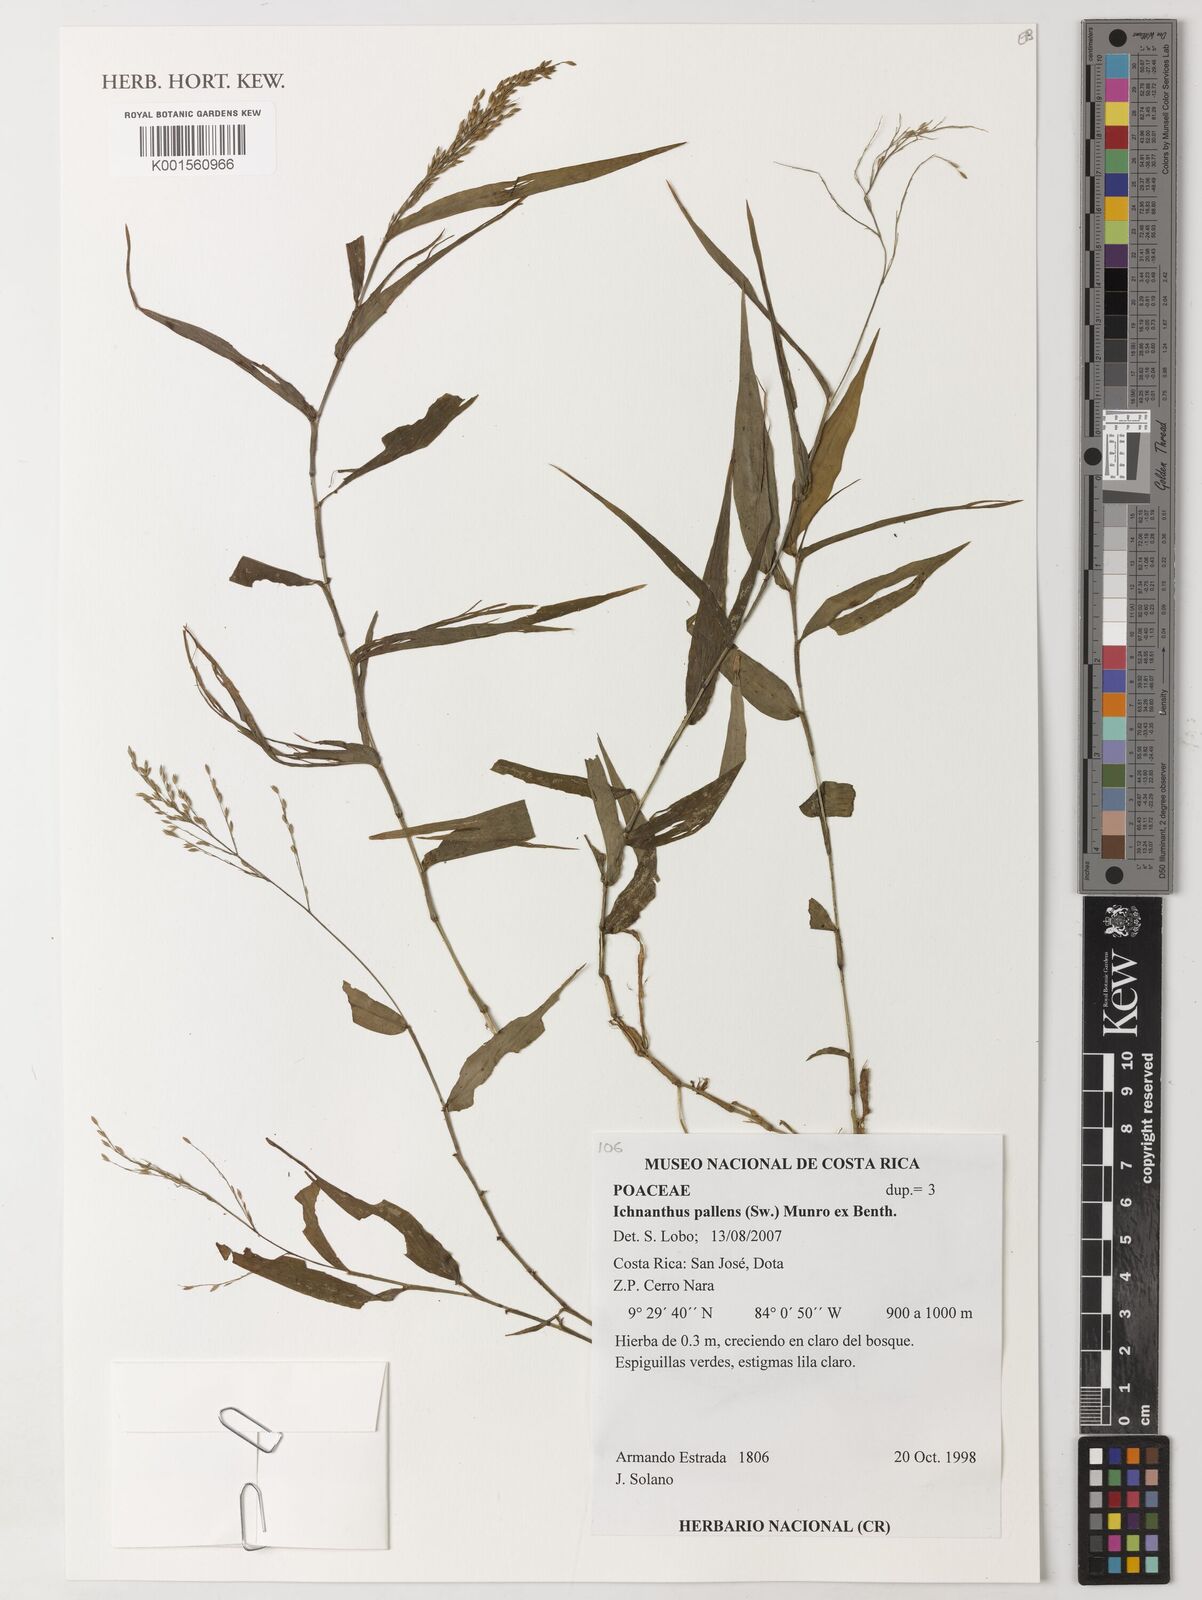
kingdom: Plantae
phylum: Tracheophyta
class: Liliopsida
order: Poales
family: Poaceae
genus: Ichnanthus
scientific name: Ichnanthus pallens
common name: Water grass
